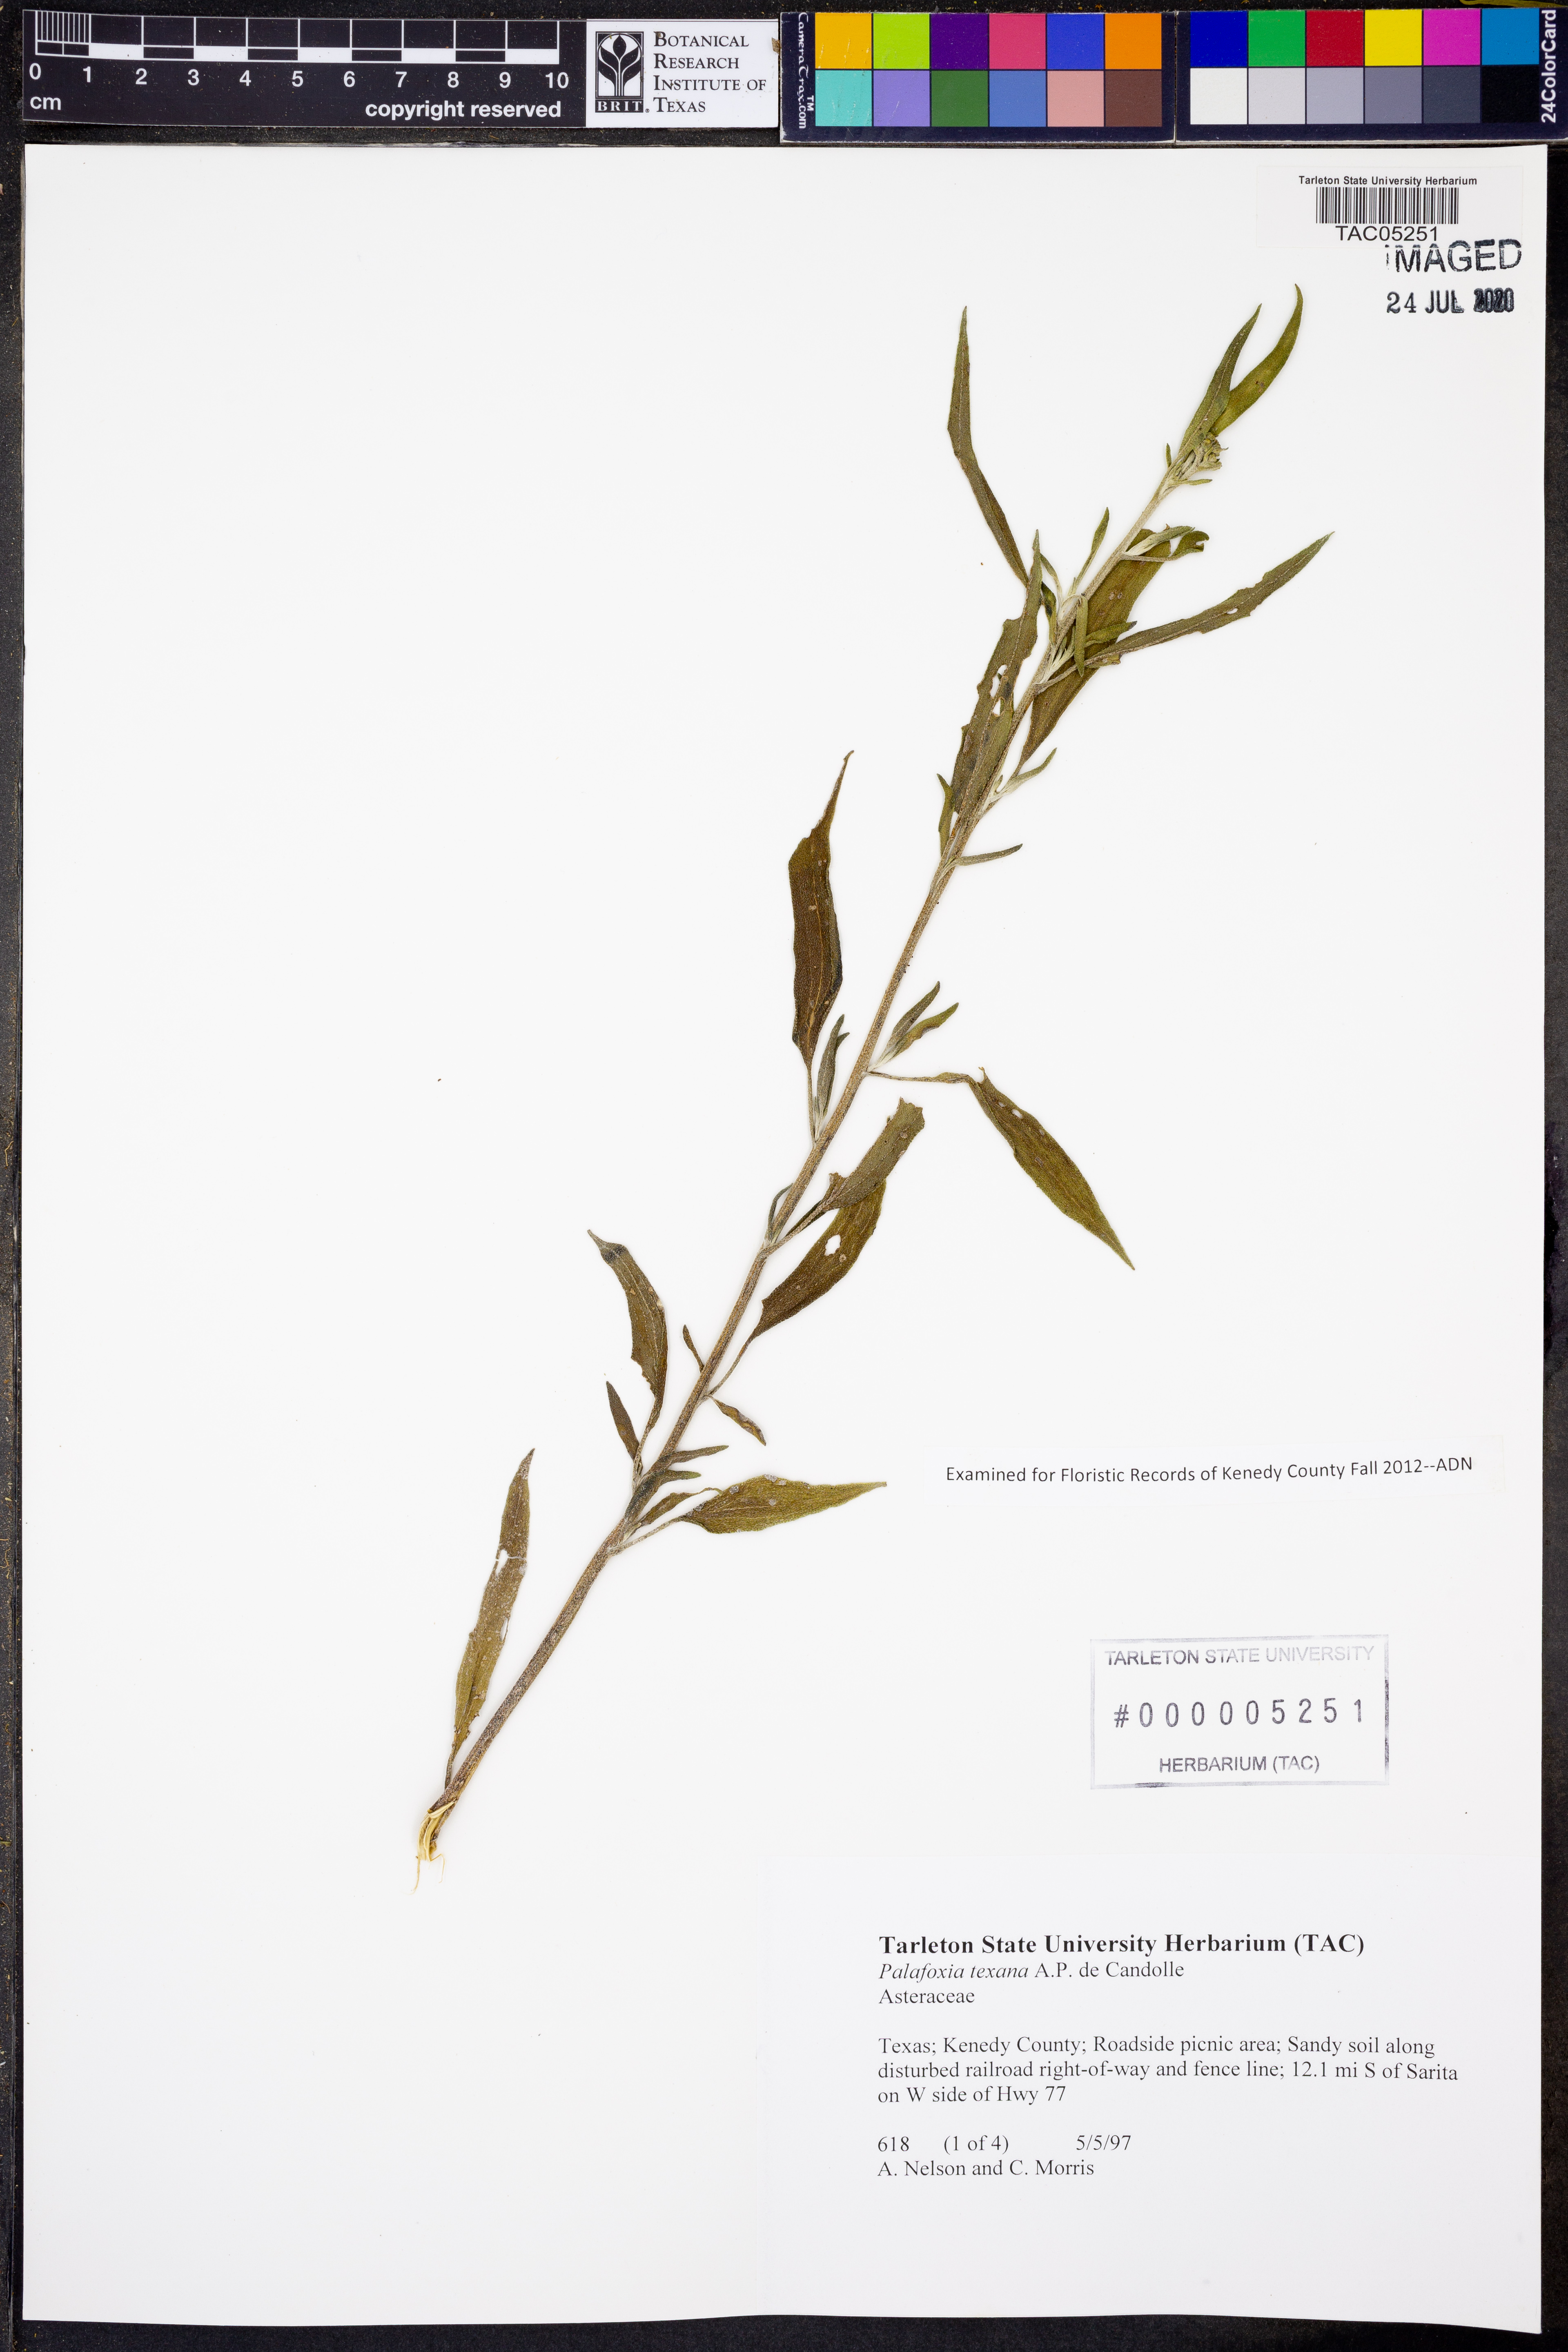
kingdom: Plantae
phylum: Tracheophyta
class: Magnoliopsida
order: Asterales
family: Asteraceae
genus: Palafoxia
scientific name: Palafoxia texana
